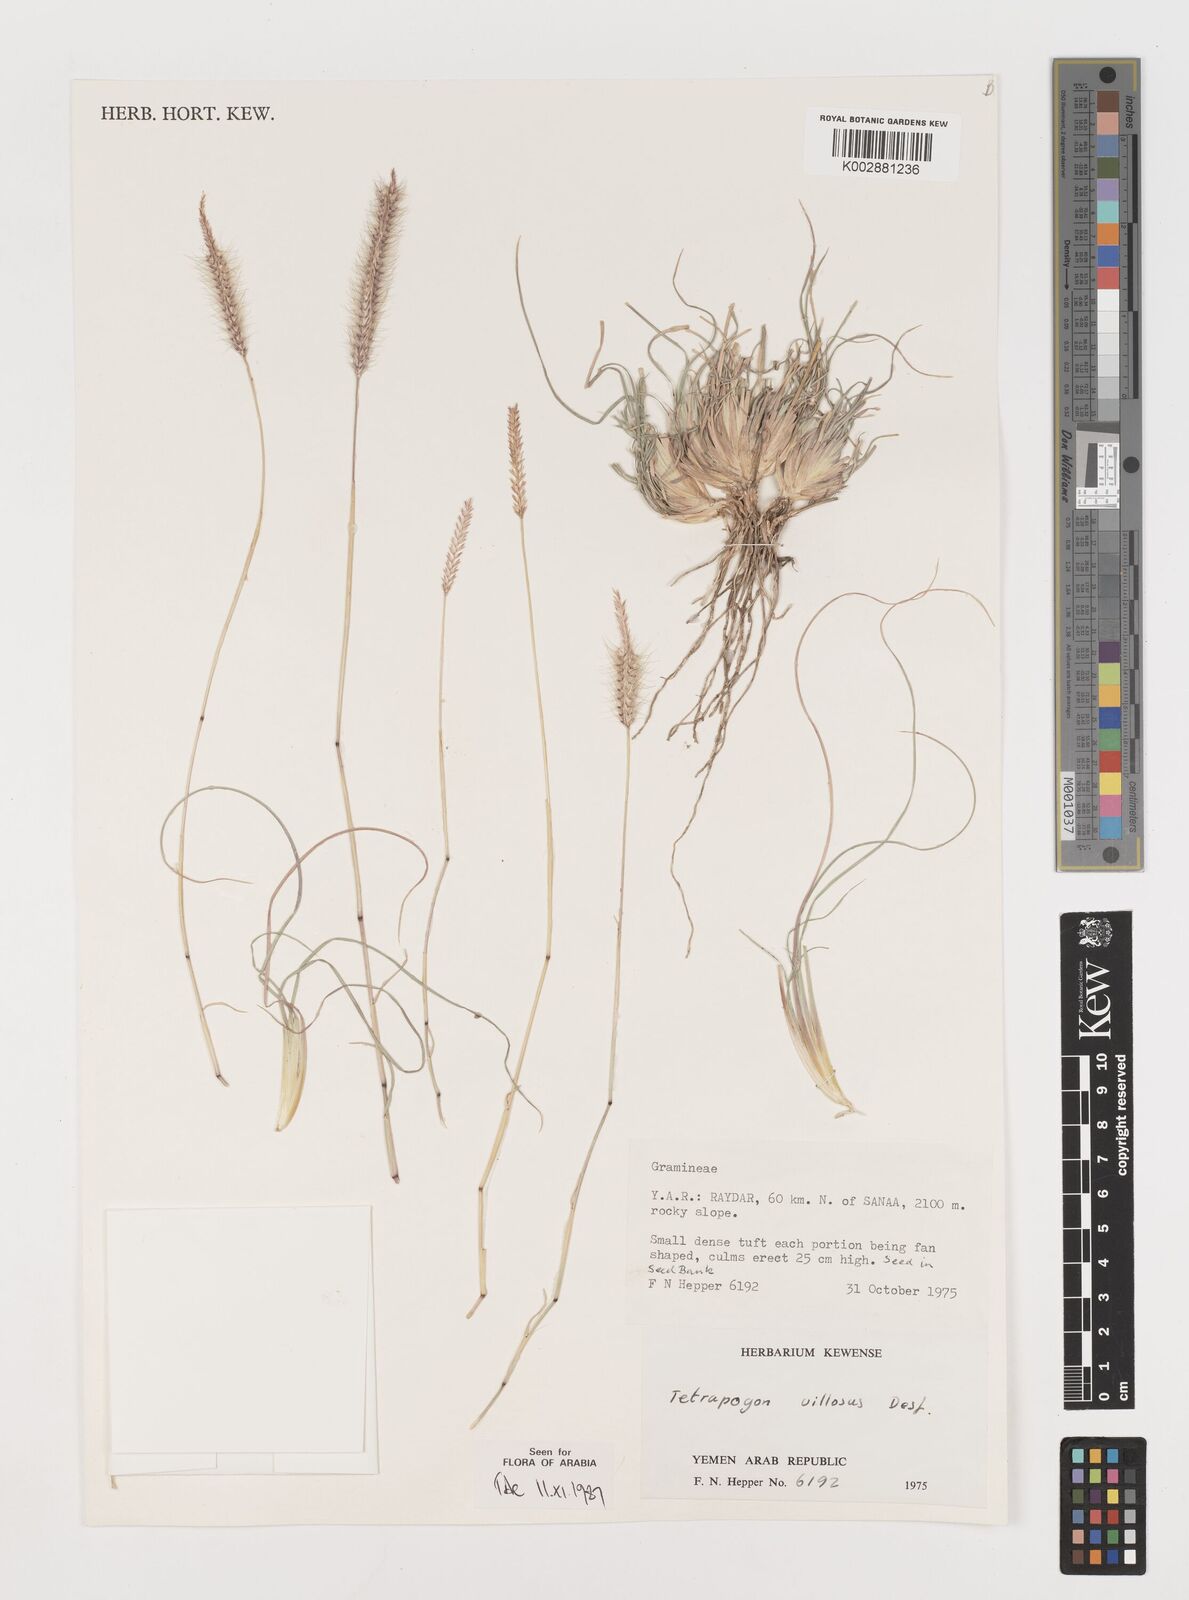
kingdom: Plantae
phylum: Tracheophyta
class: Liliopsida
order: Poales
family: Poaceae
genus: Tetrapogon
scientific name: Tetrapogon villosus
